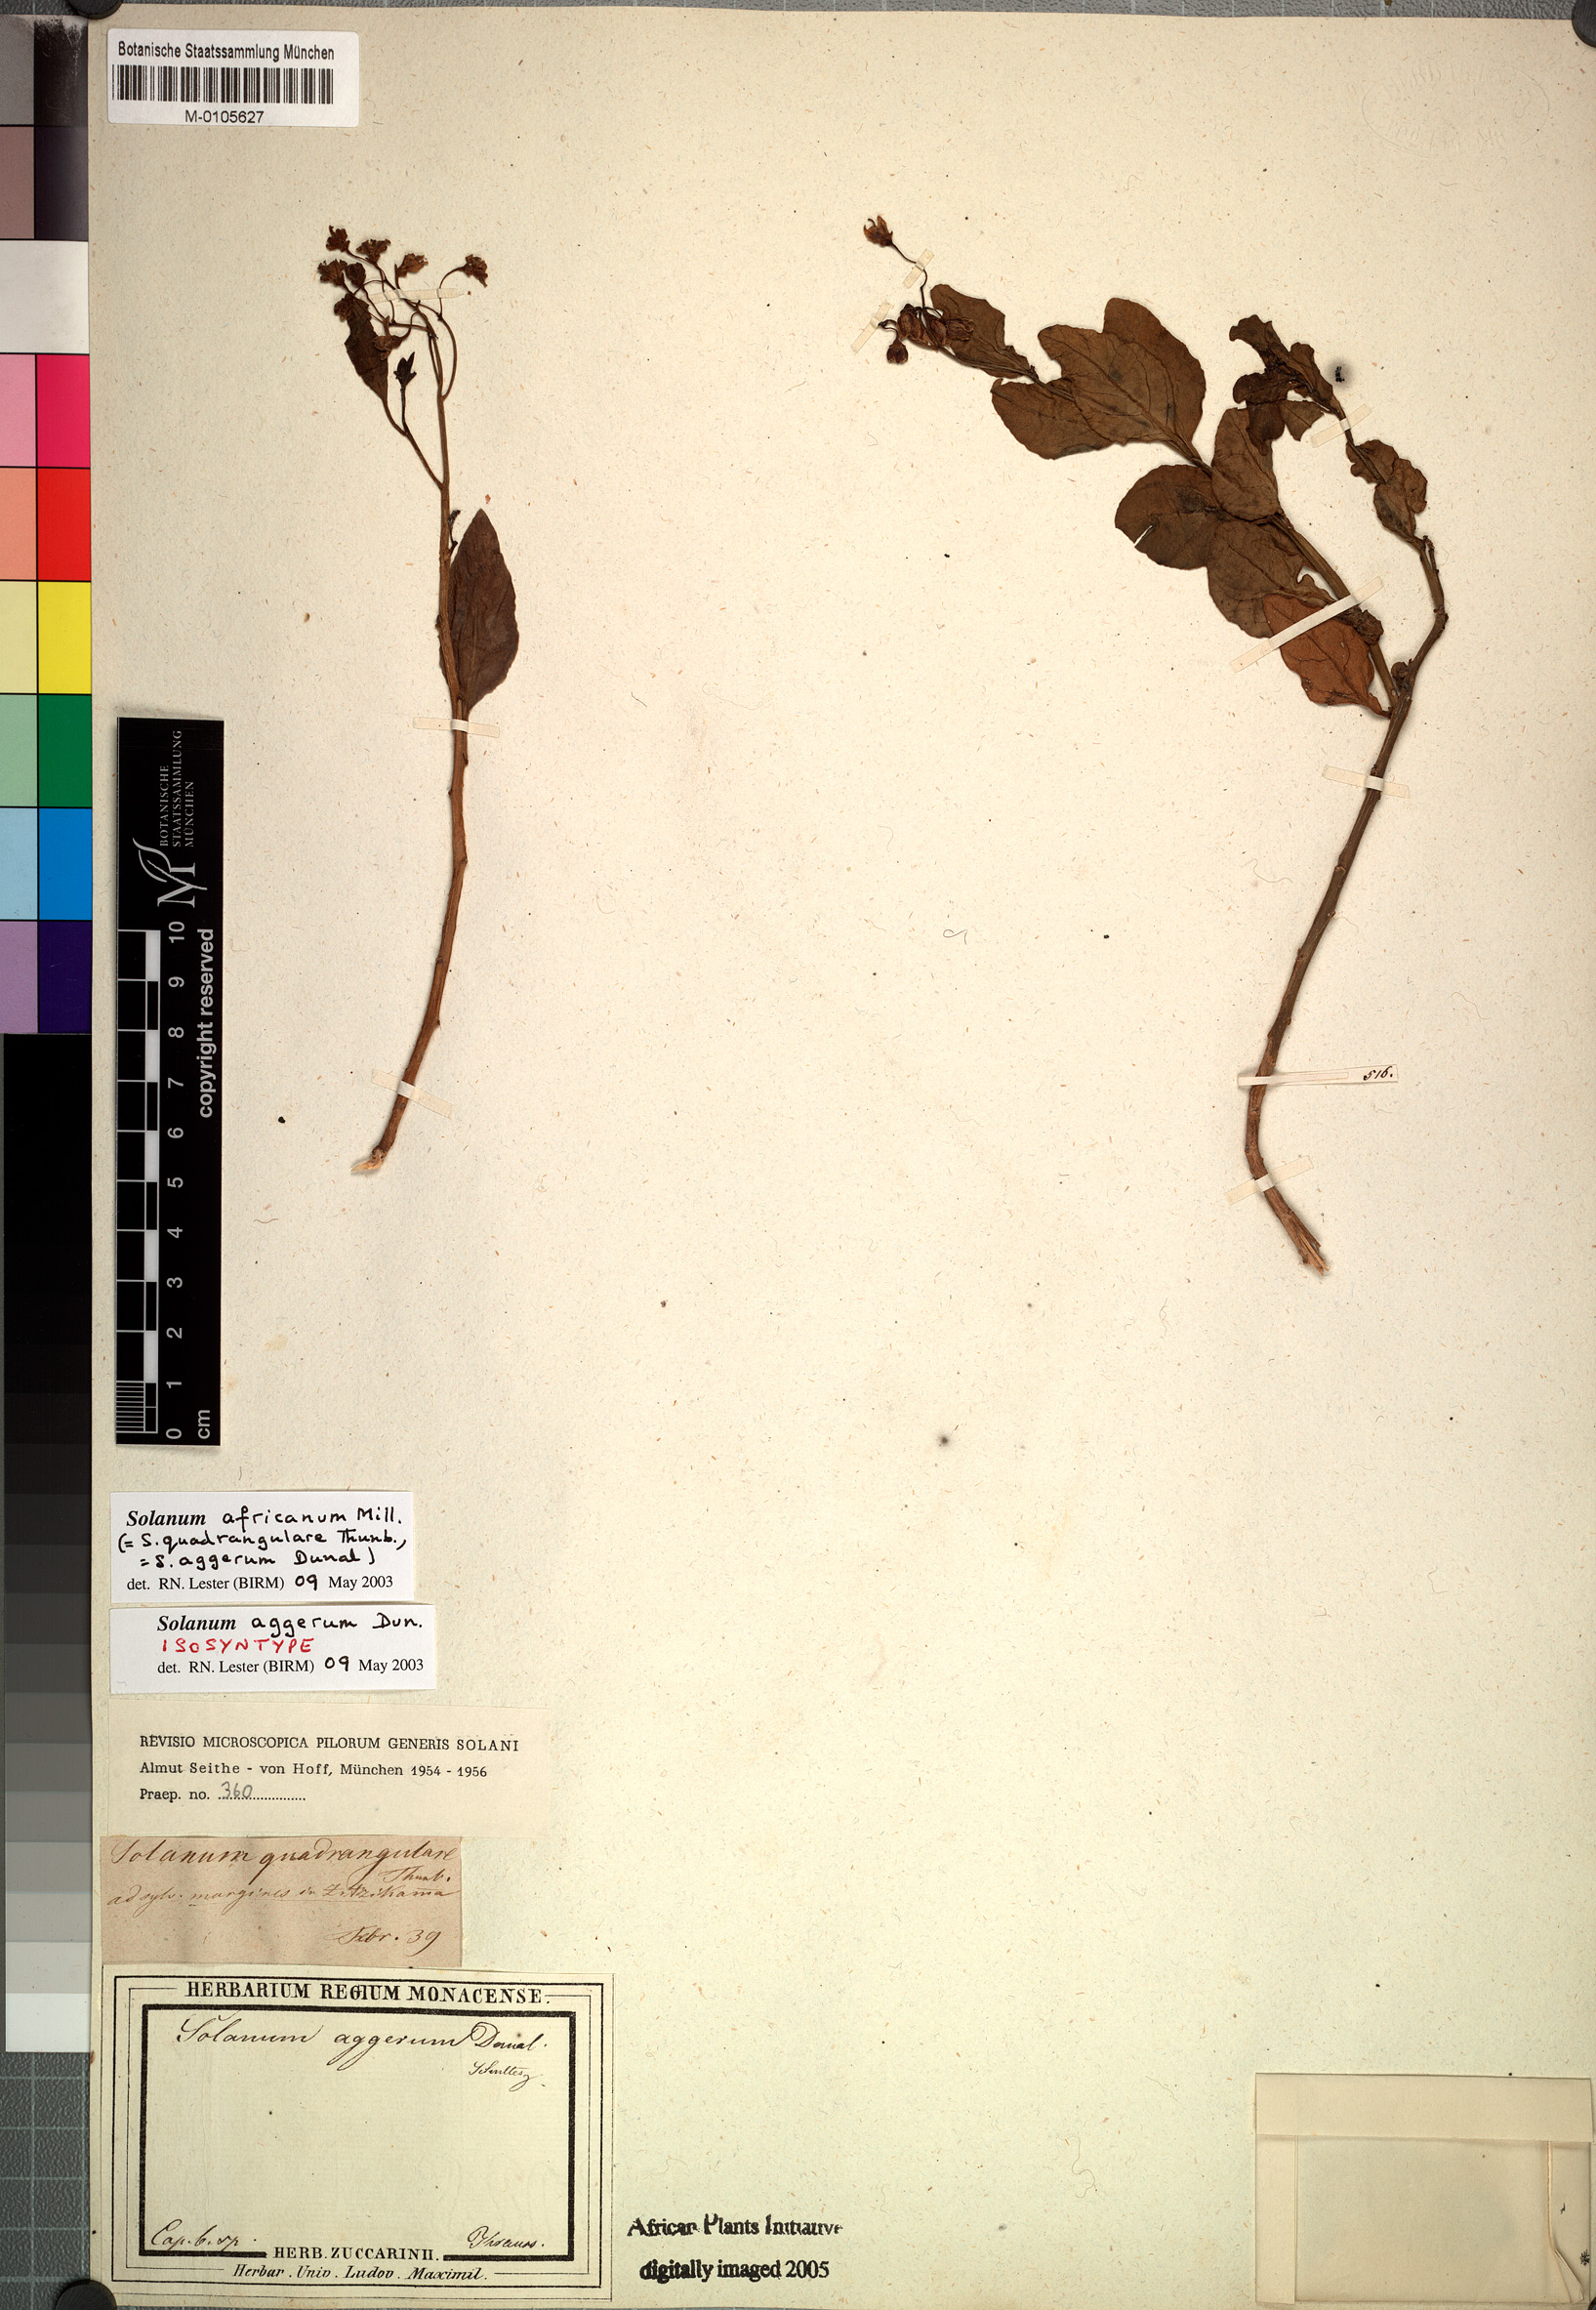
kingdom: Plantae
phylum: Tracheophyta
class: Magnoliopsida
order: Solanales
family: Solanaceae
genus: Solanum
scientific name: Solanum africanum
